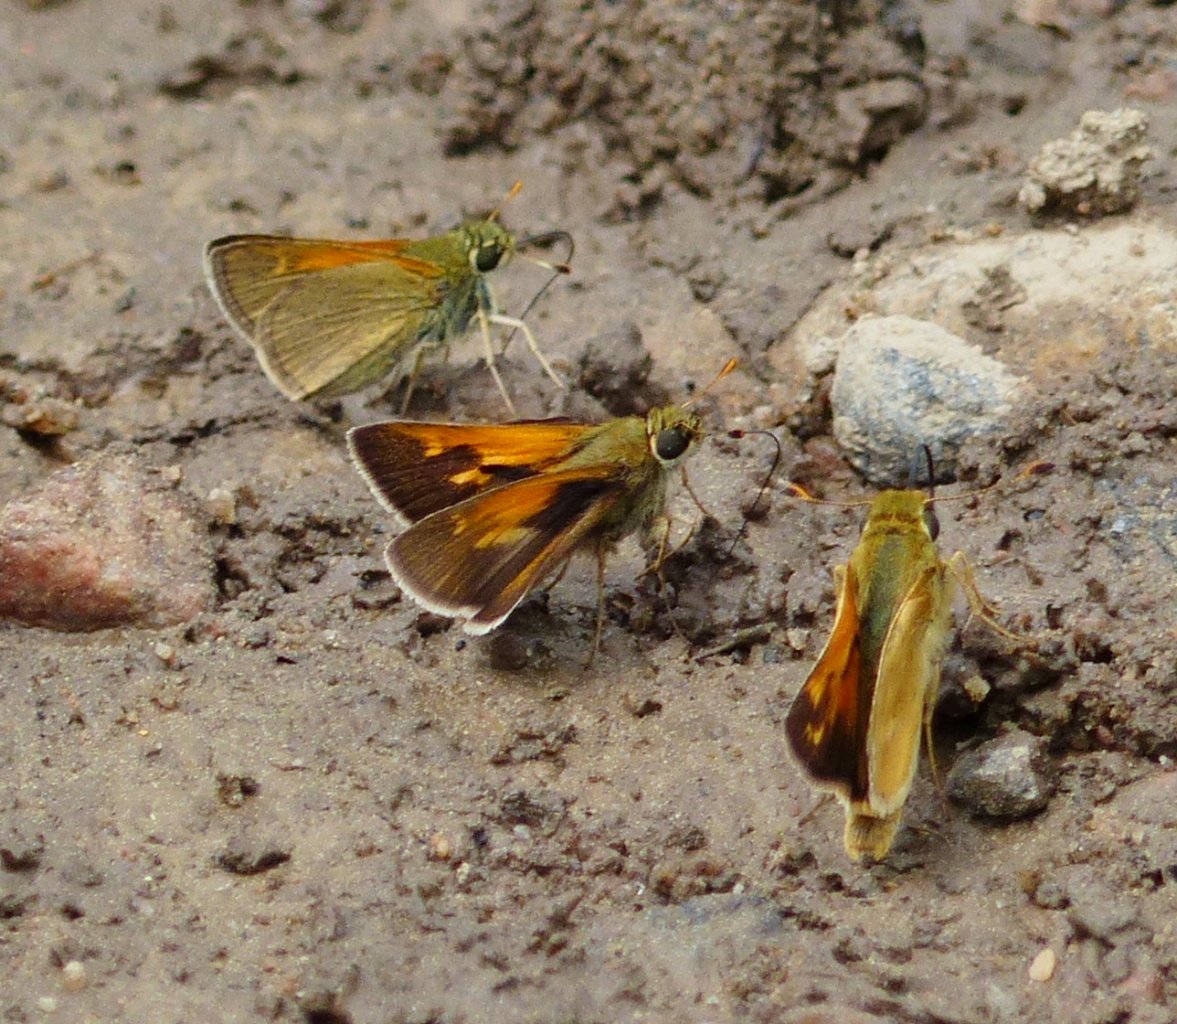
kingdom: Animalia
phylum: Arthropoda
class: Insecta
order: Lepidoptera
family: Hesperiidae
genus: Polites
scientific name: Polites themistocles
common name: Tawny-edged Skipper
